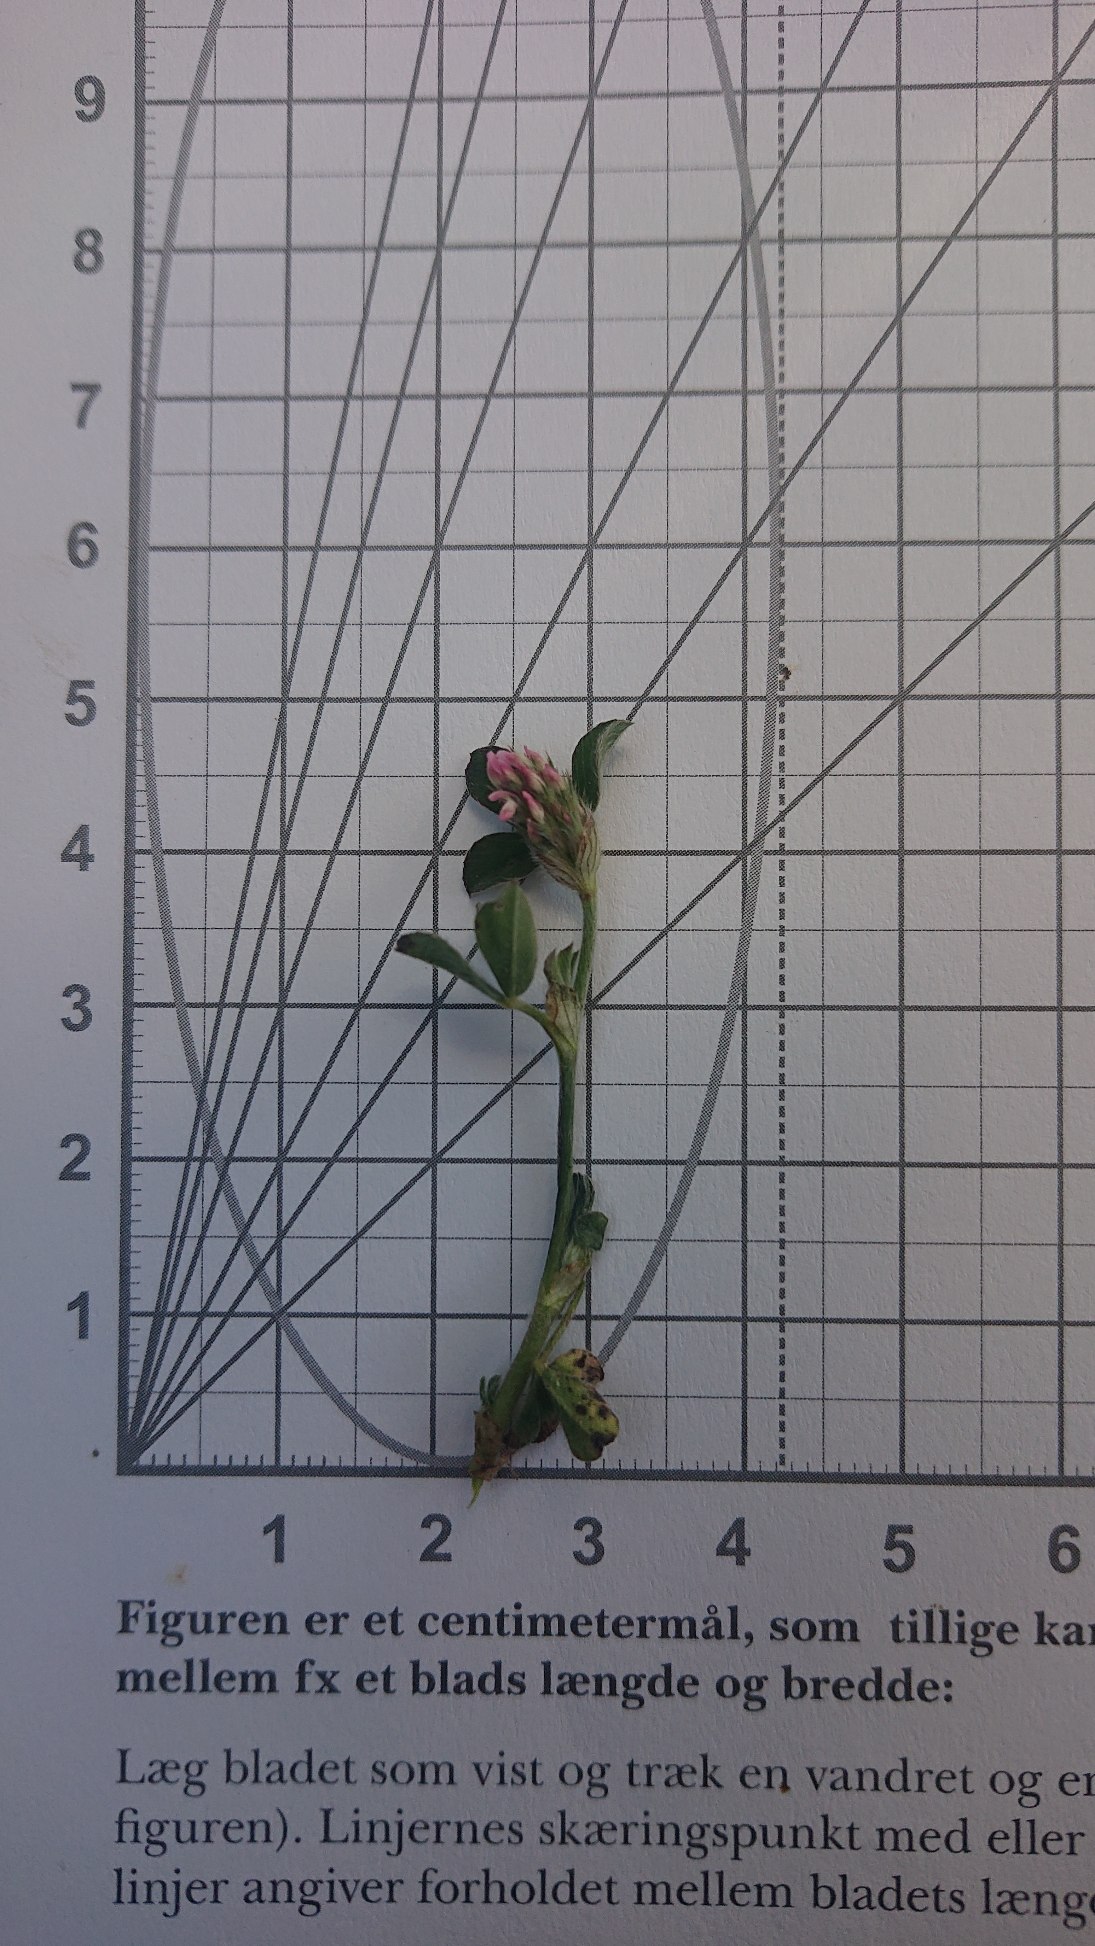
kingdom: Plantae
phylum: Tracheophyta
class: Magnoliopsida
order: Fabales
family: Fabaceae
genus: Trifolium
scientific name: Trifolium striatum
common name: Stribet kløver
